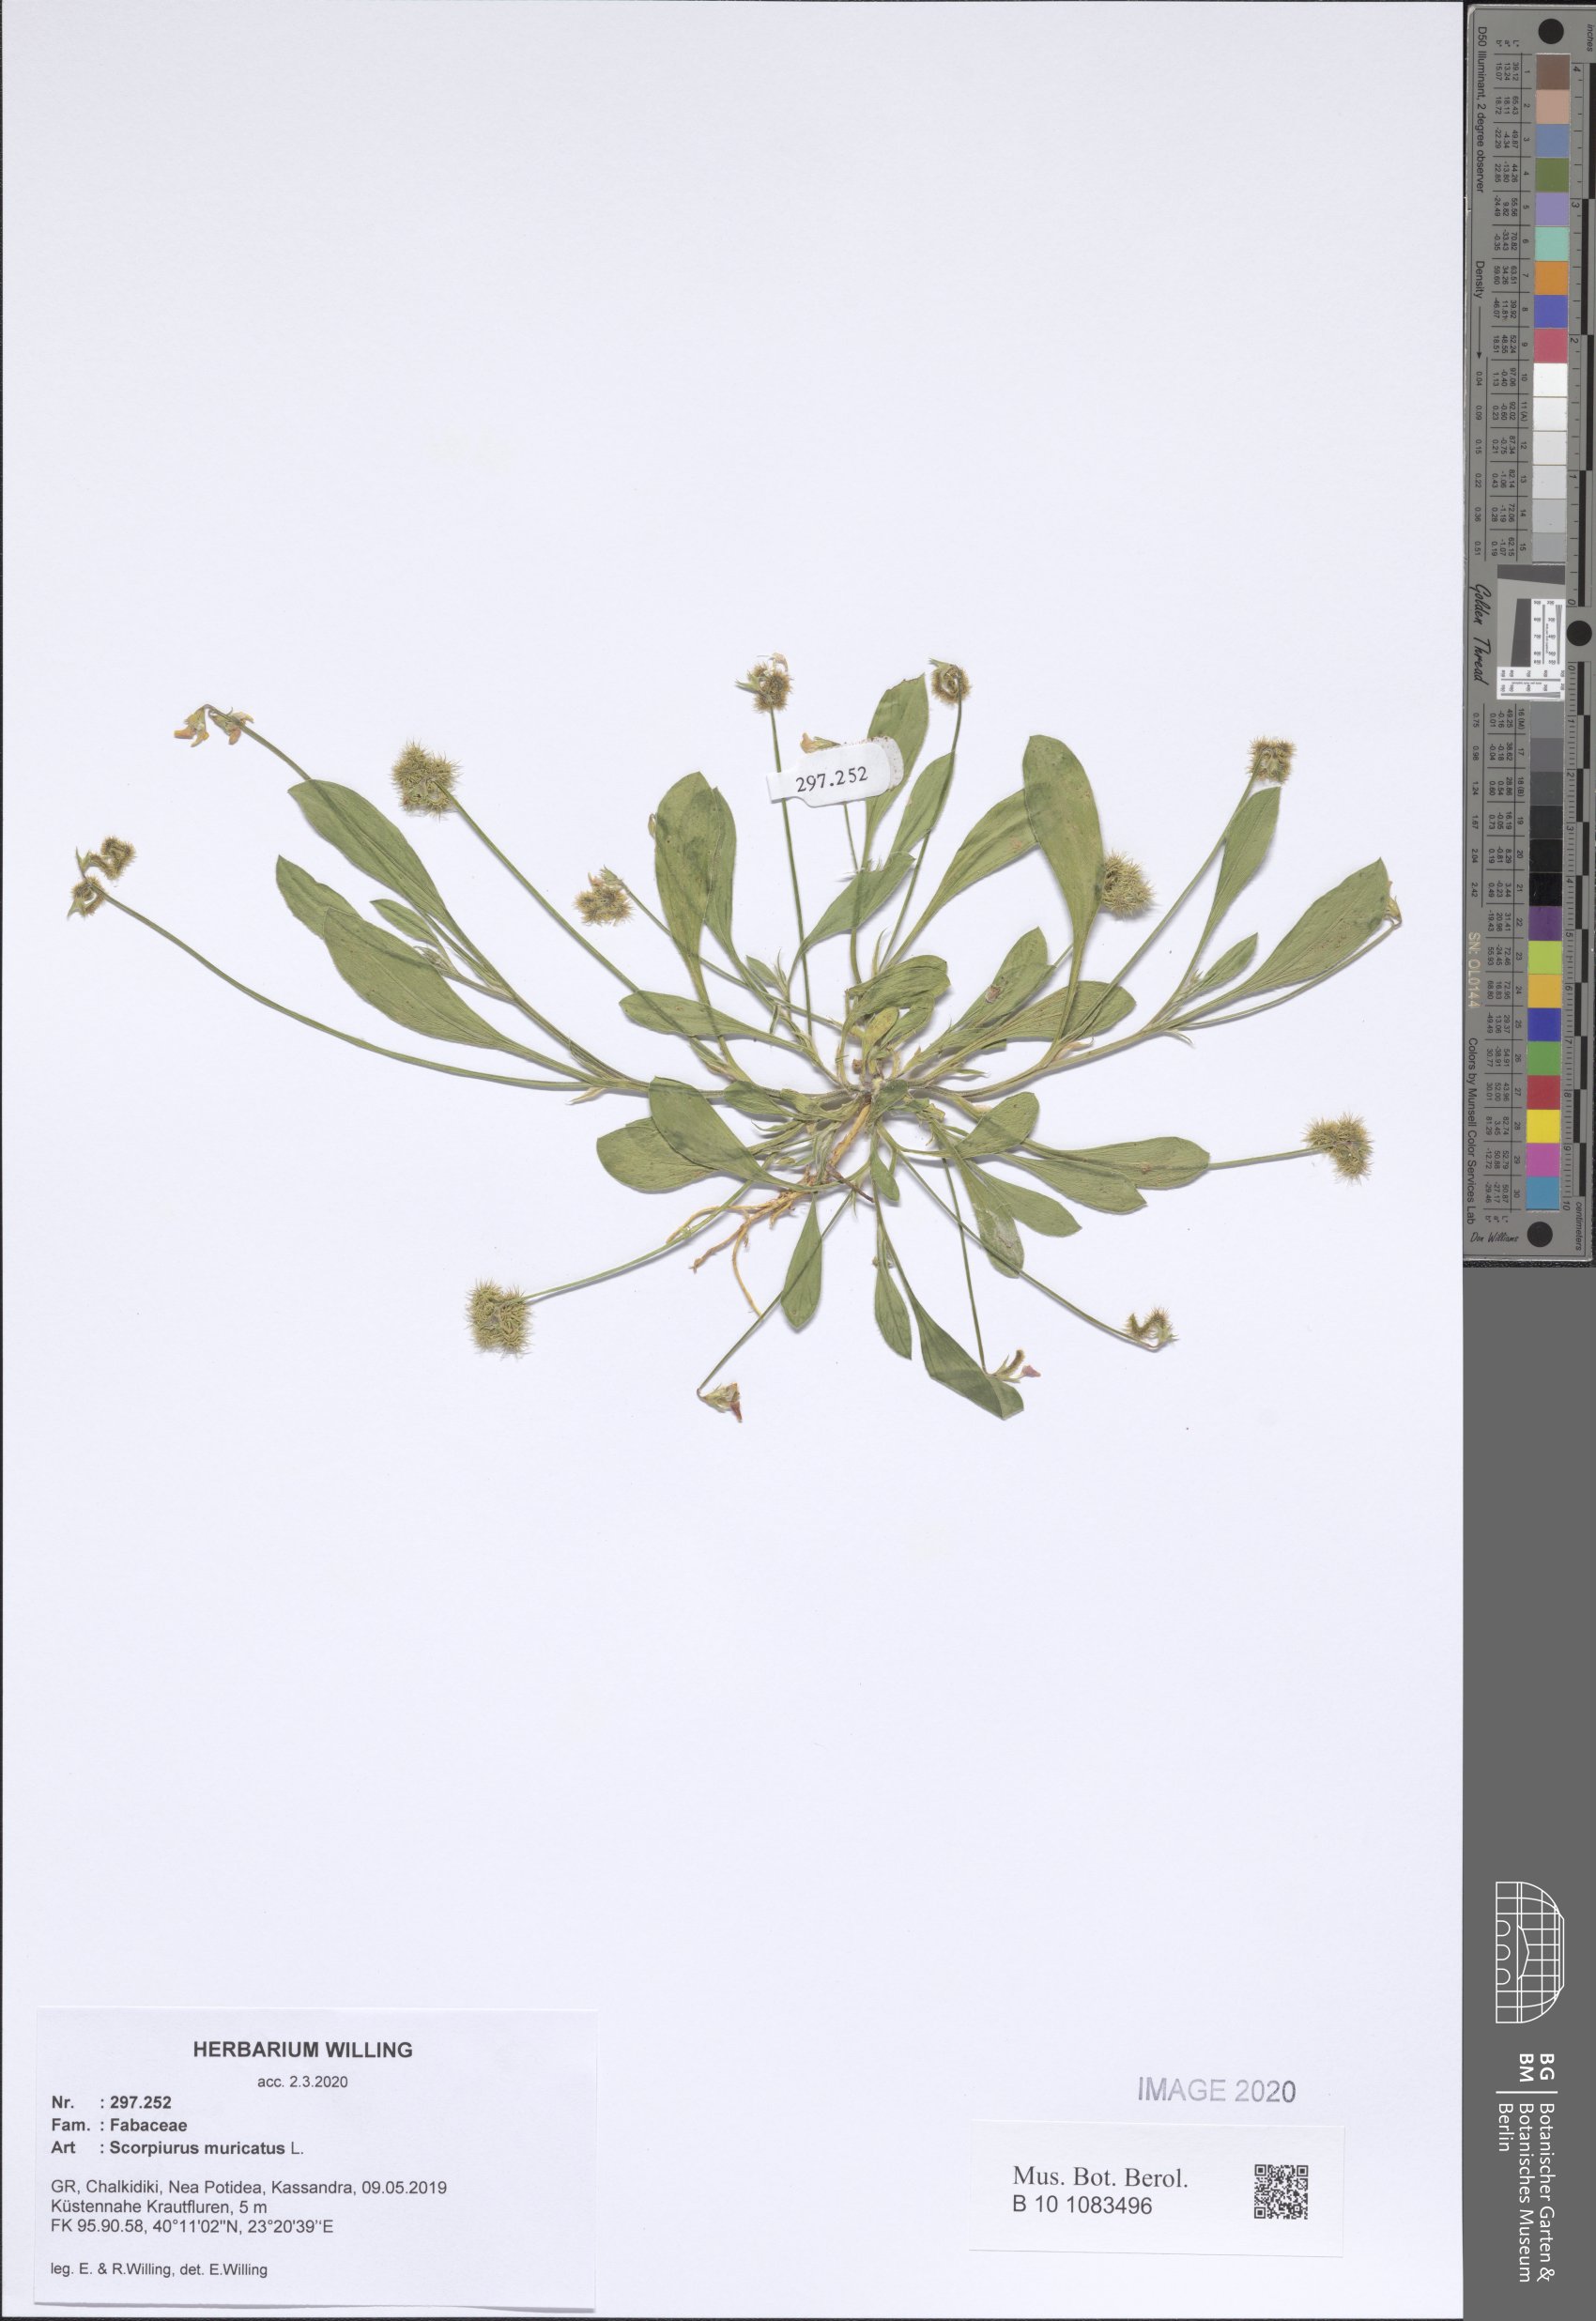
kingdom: Plantae
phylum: Tracheophyta
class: Magnoliopsida
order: Fabales
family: Fabaceae
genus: Scorpiurus
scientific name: Scorpiurus muricatus
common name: Caterpillar-plant
